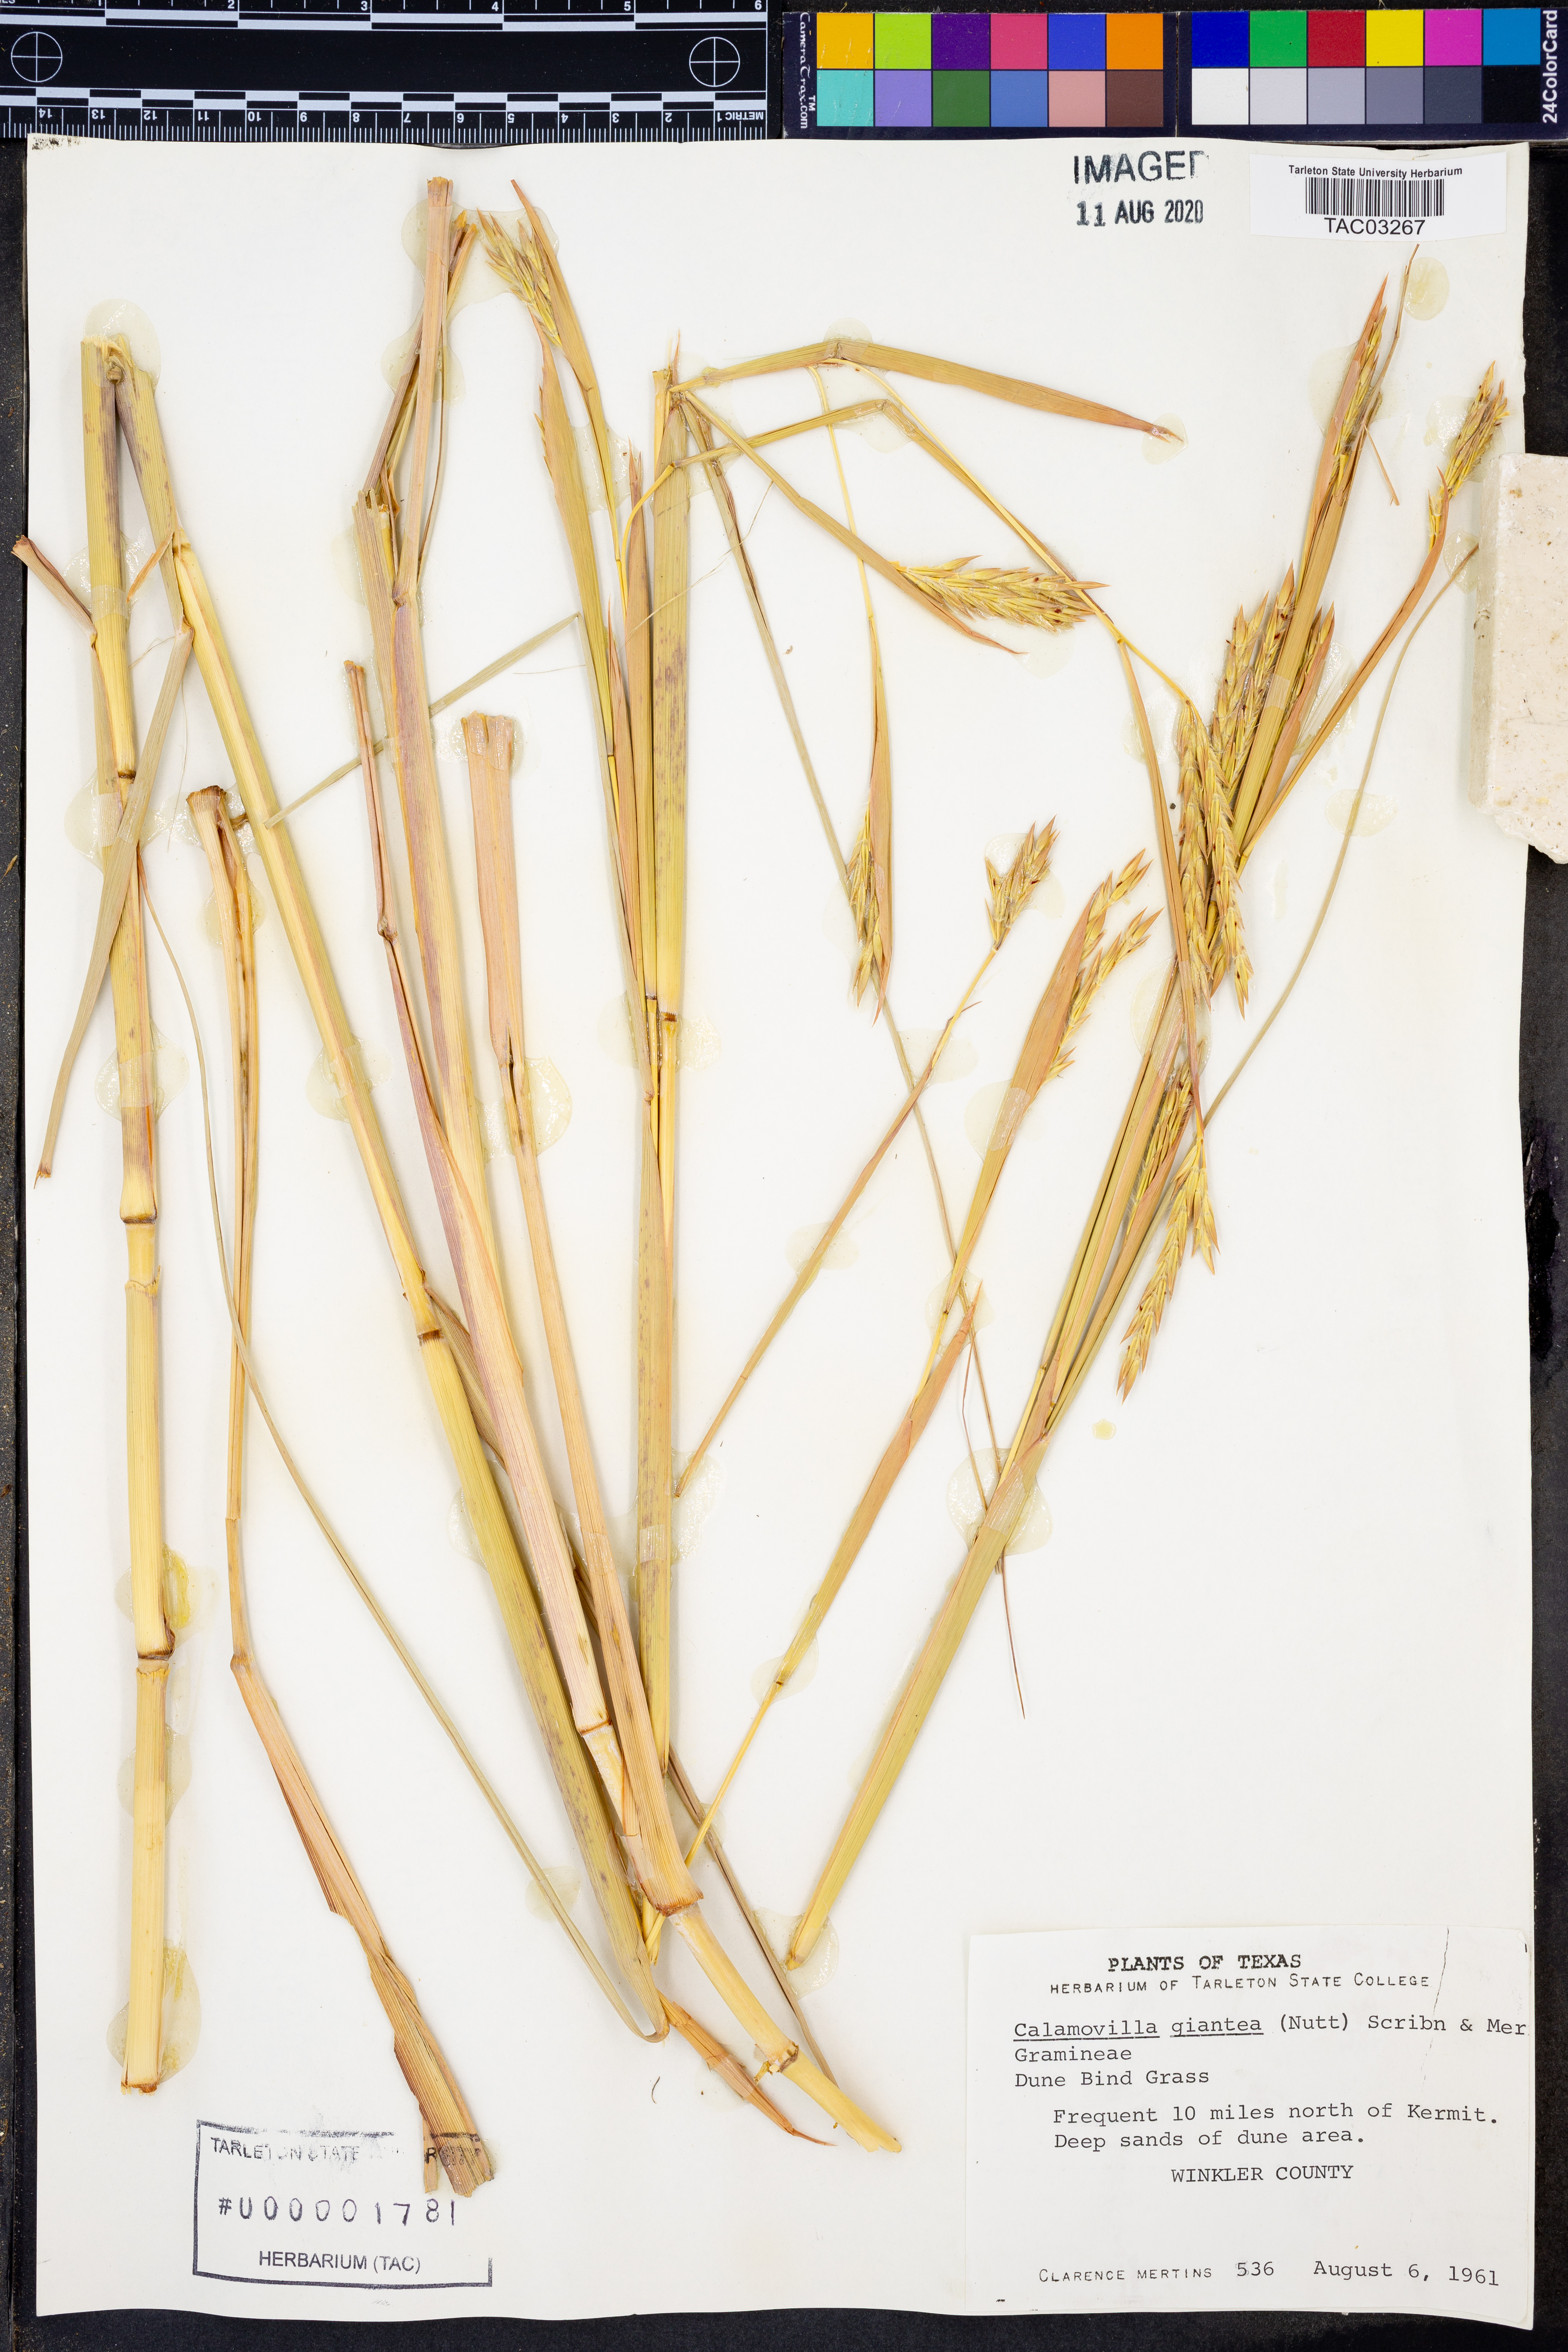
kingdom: Plantae
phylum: Tracheophyta
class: Liliopsida
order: Poales
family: Poaceae
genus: Sporobolus
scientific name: Sporobolus arenicola
